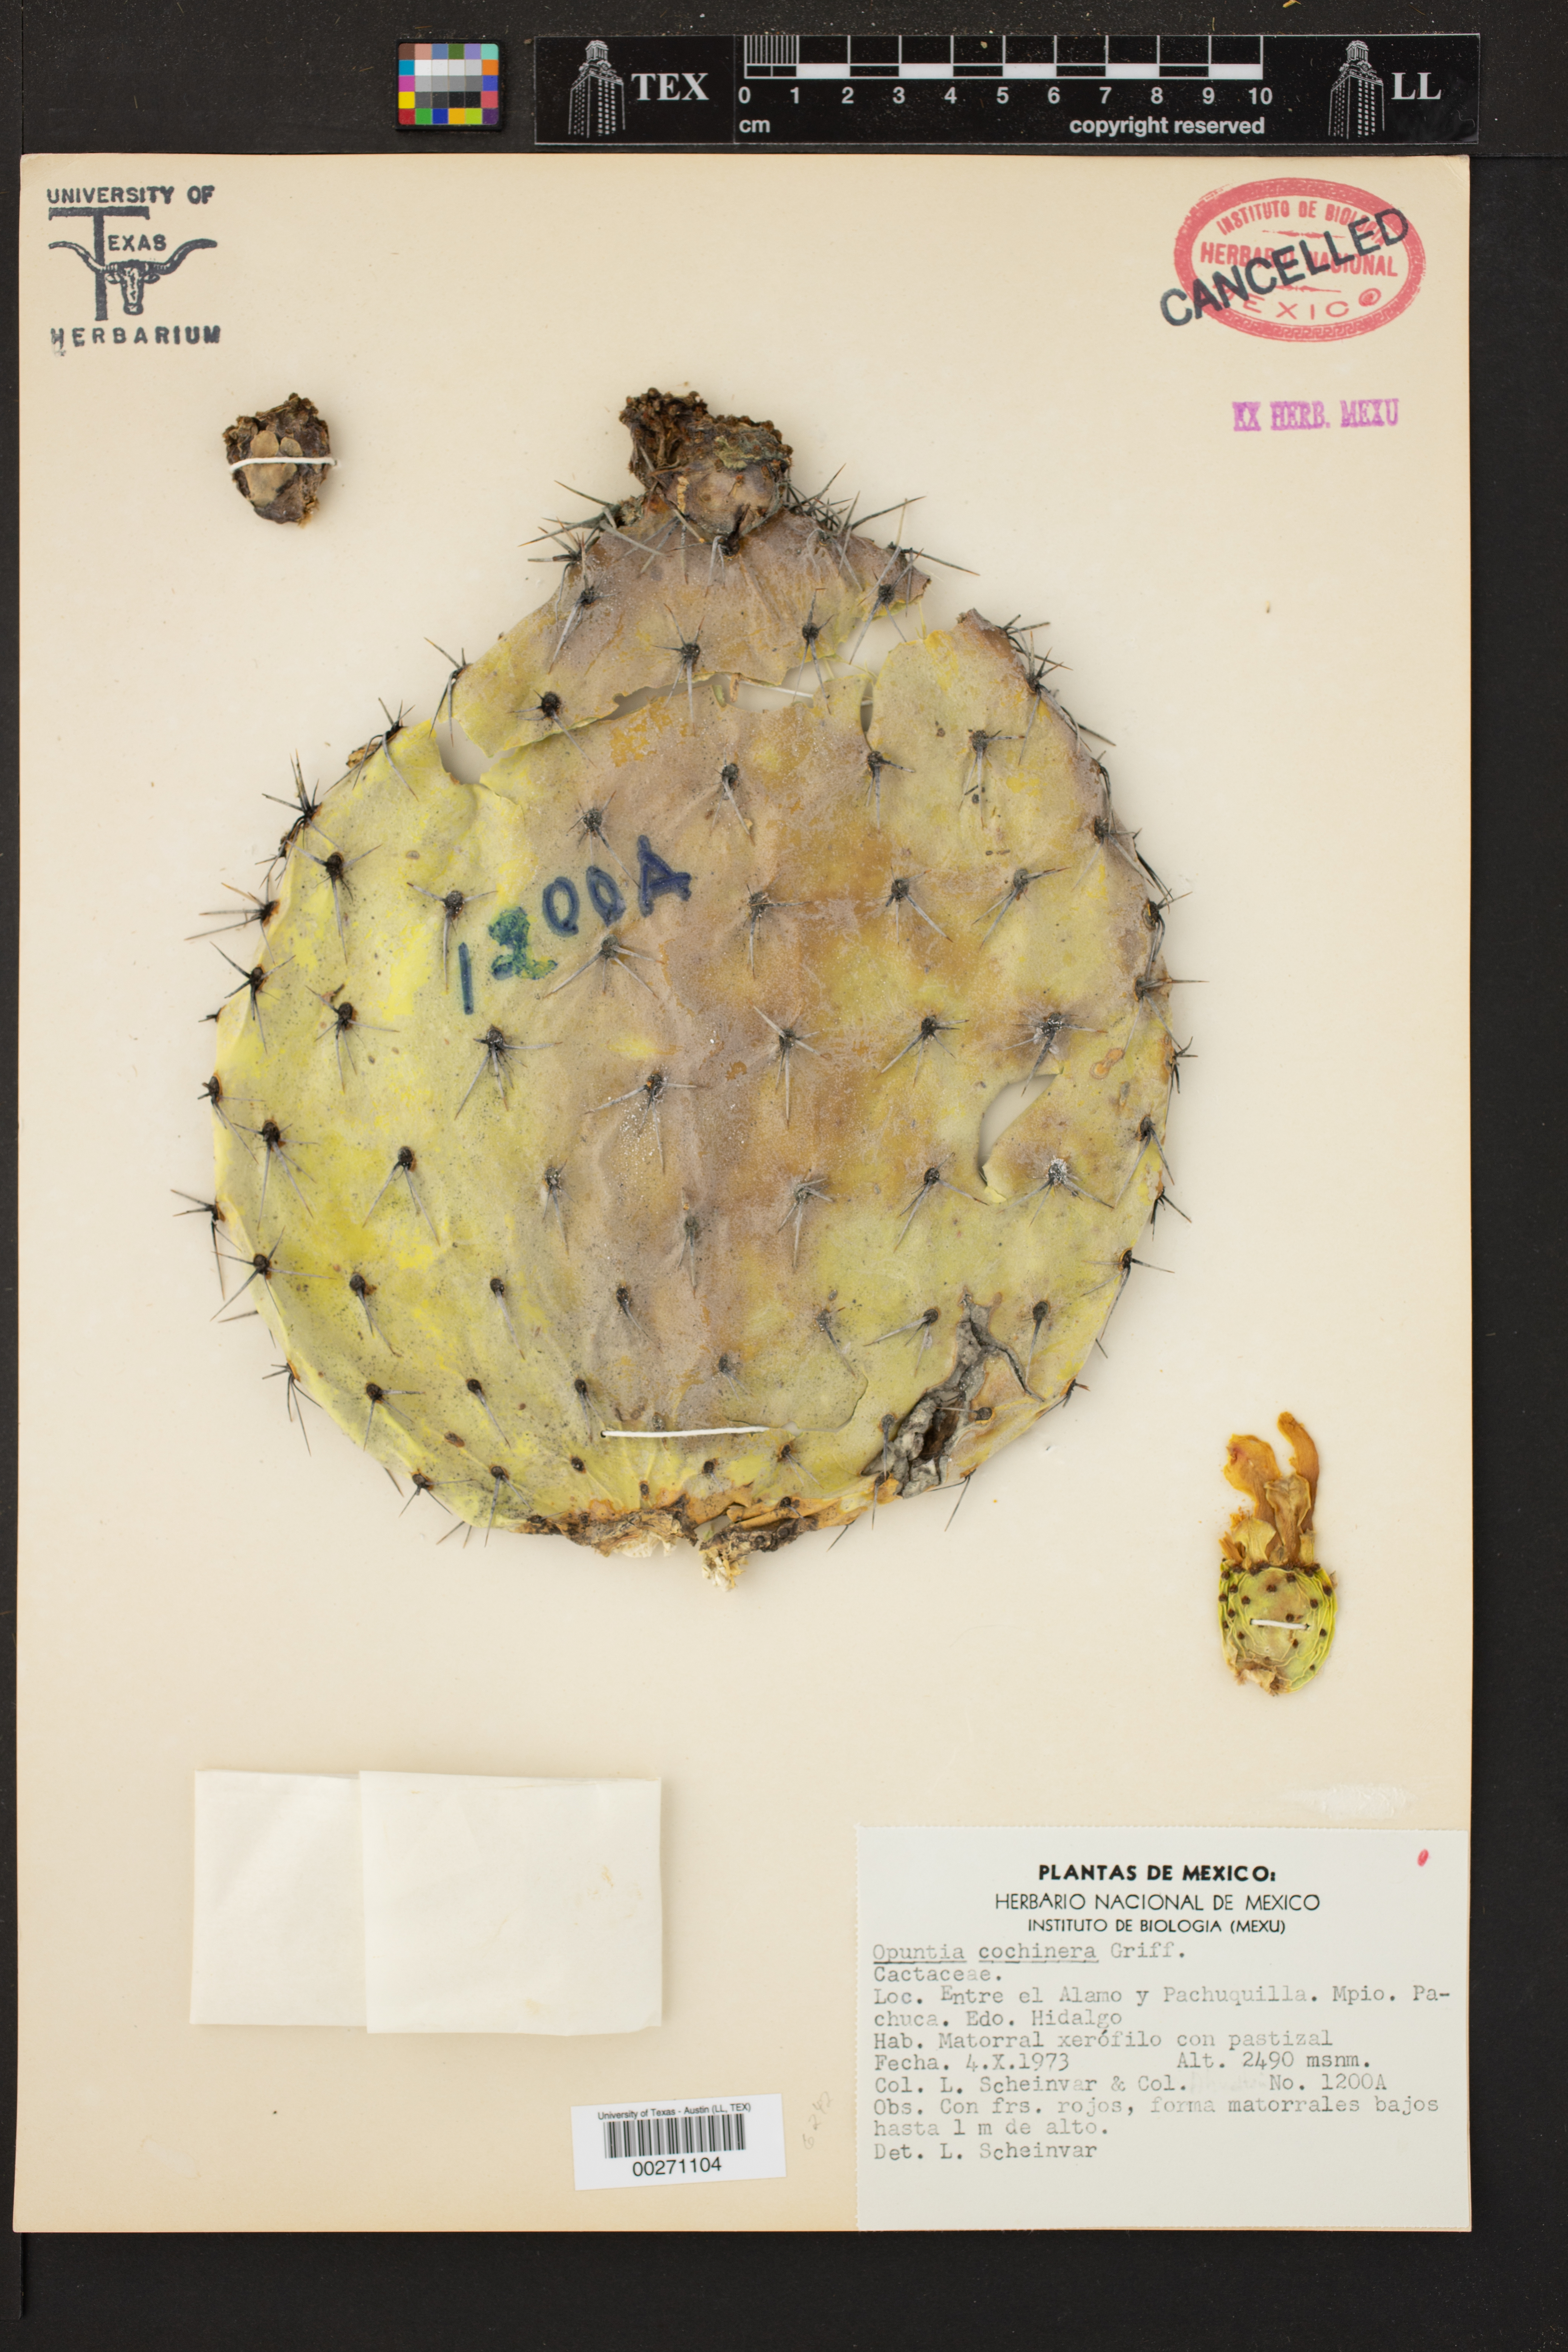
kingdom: Plantae
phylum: Tracheophyta
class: Magnoliopsida
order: Caryophyllales
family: Cactaceae
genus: Opuntia
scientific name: Opuntia cochinera
